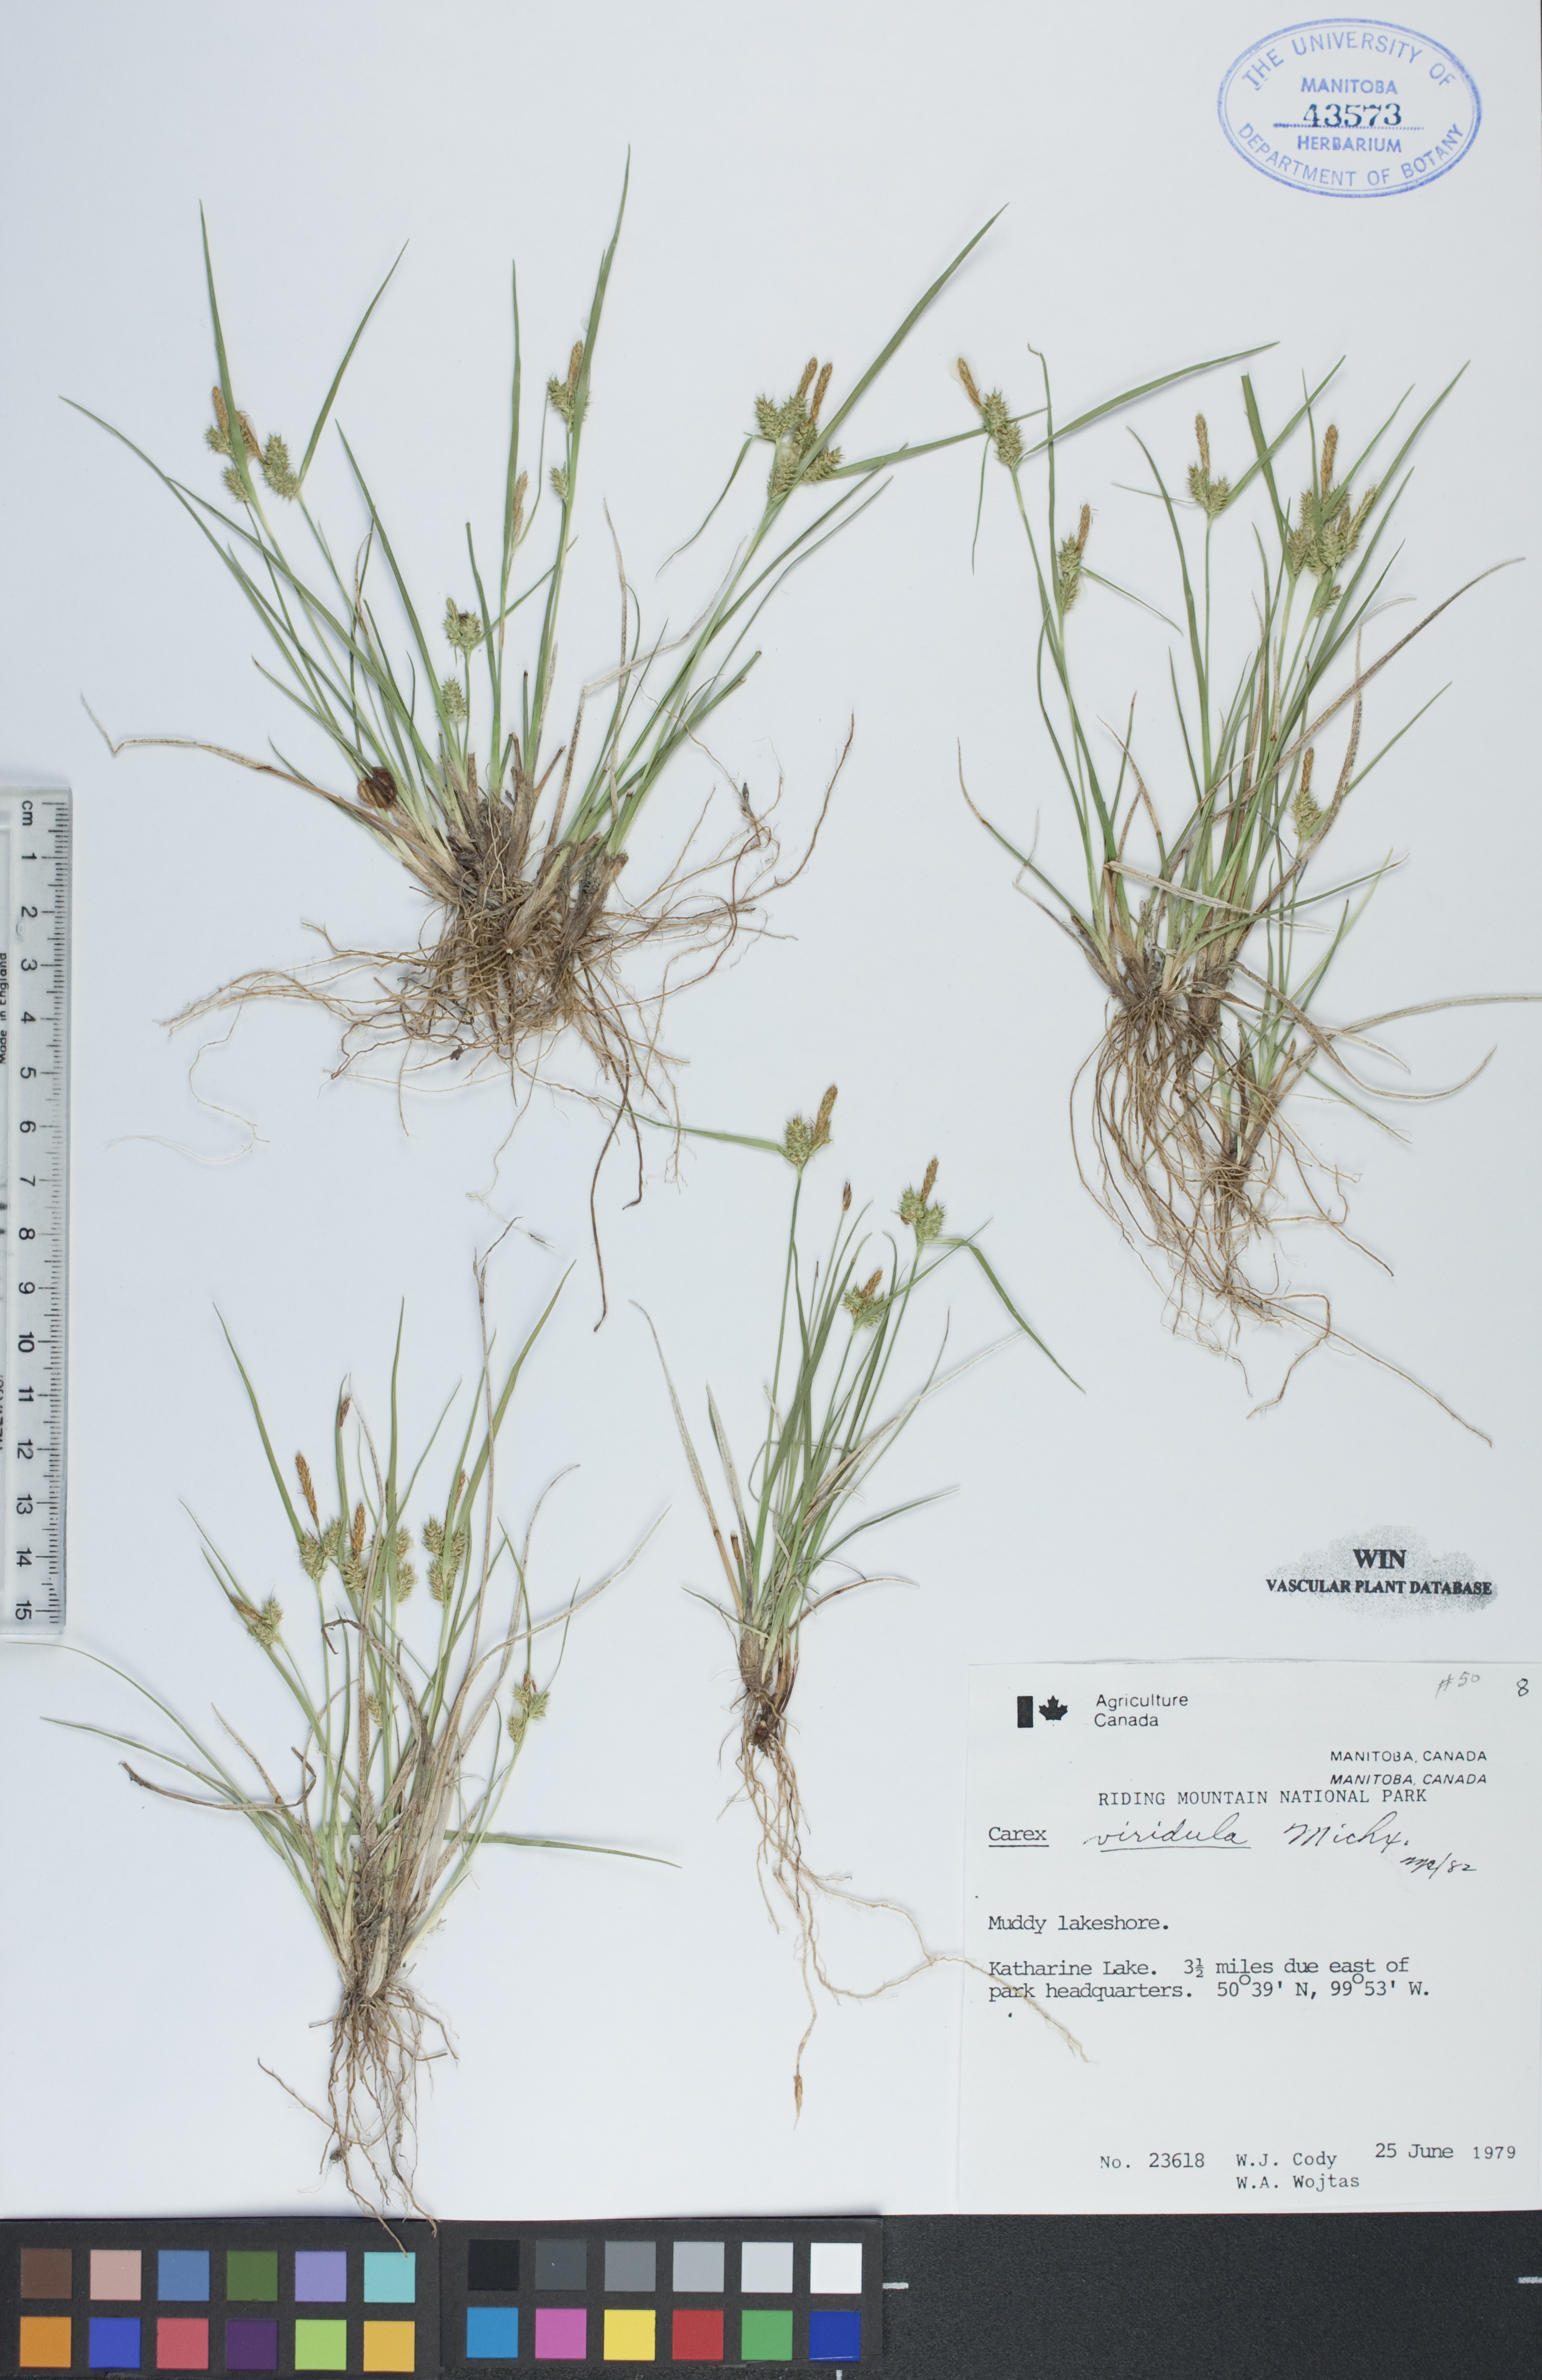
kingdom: Plantae
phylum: Tracheophyta
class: Liliopsida
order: Poales
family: Cyperaceae
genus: Carex
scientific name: Carex oederi
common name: Common & small-fruited yellow-sedge
